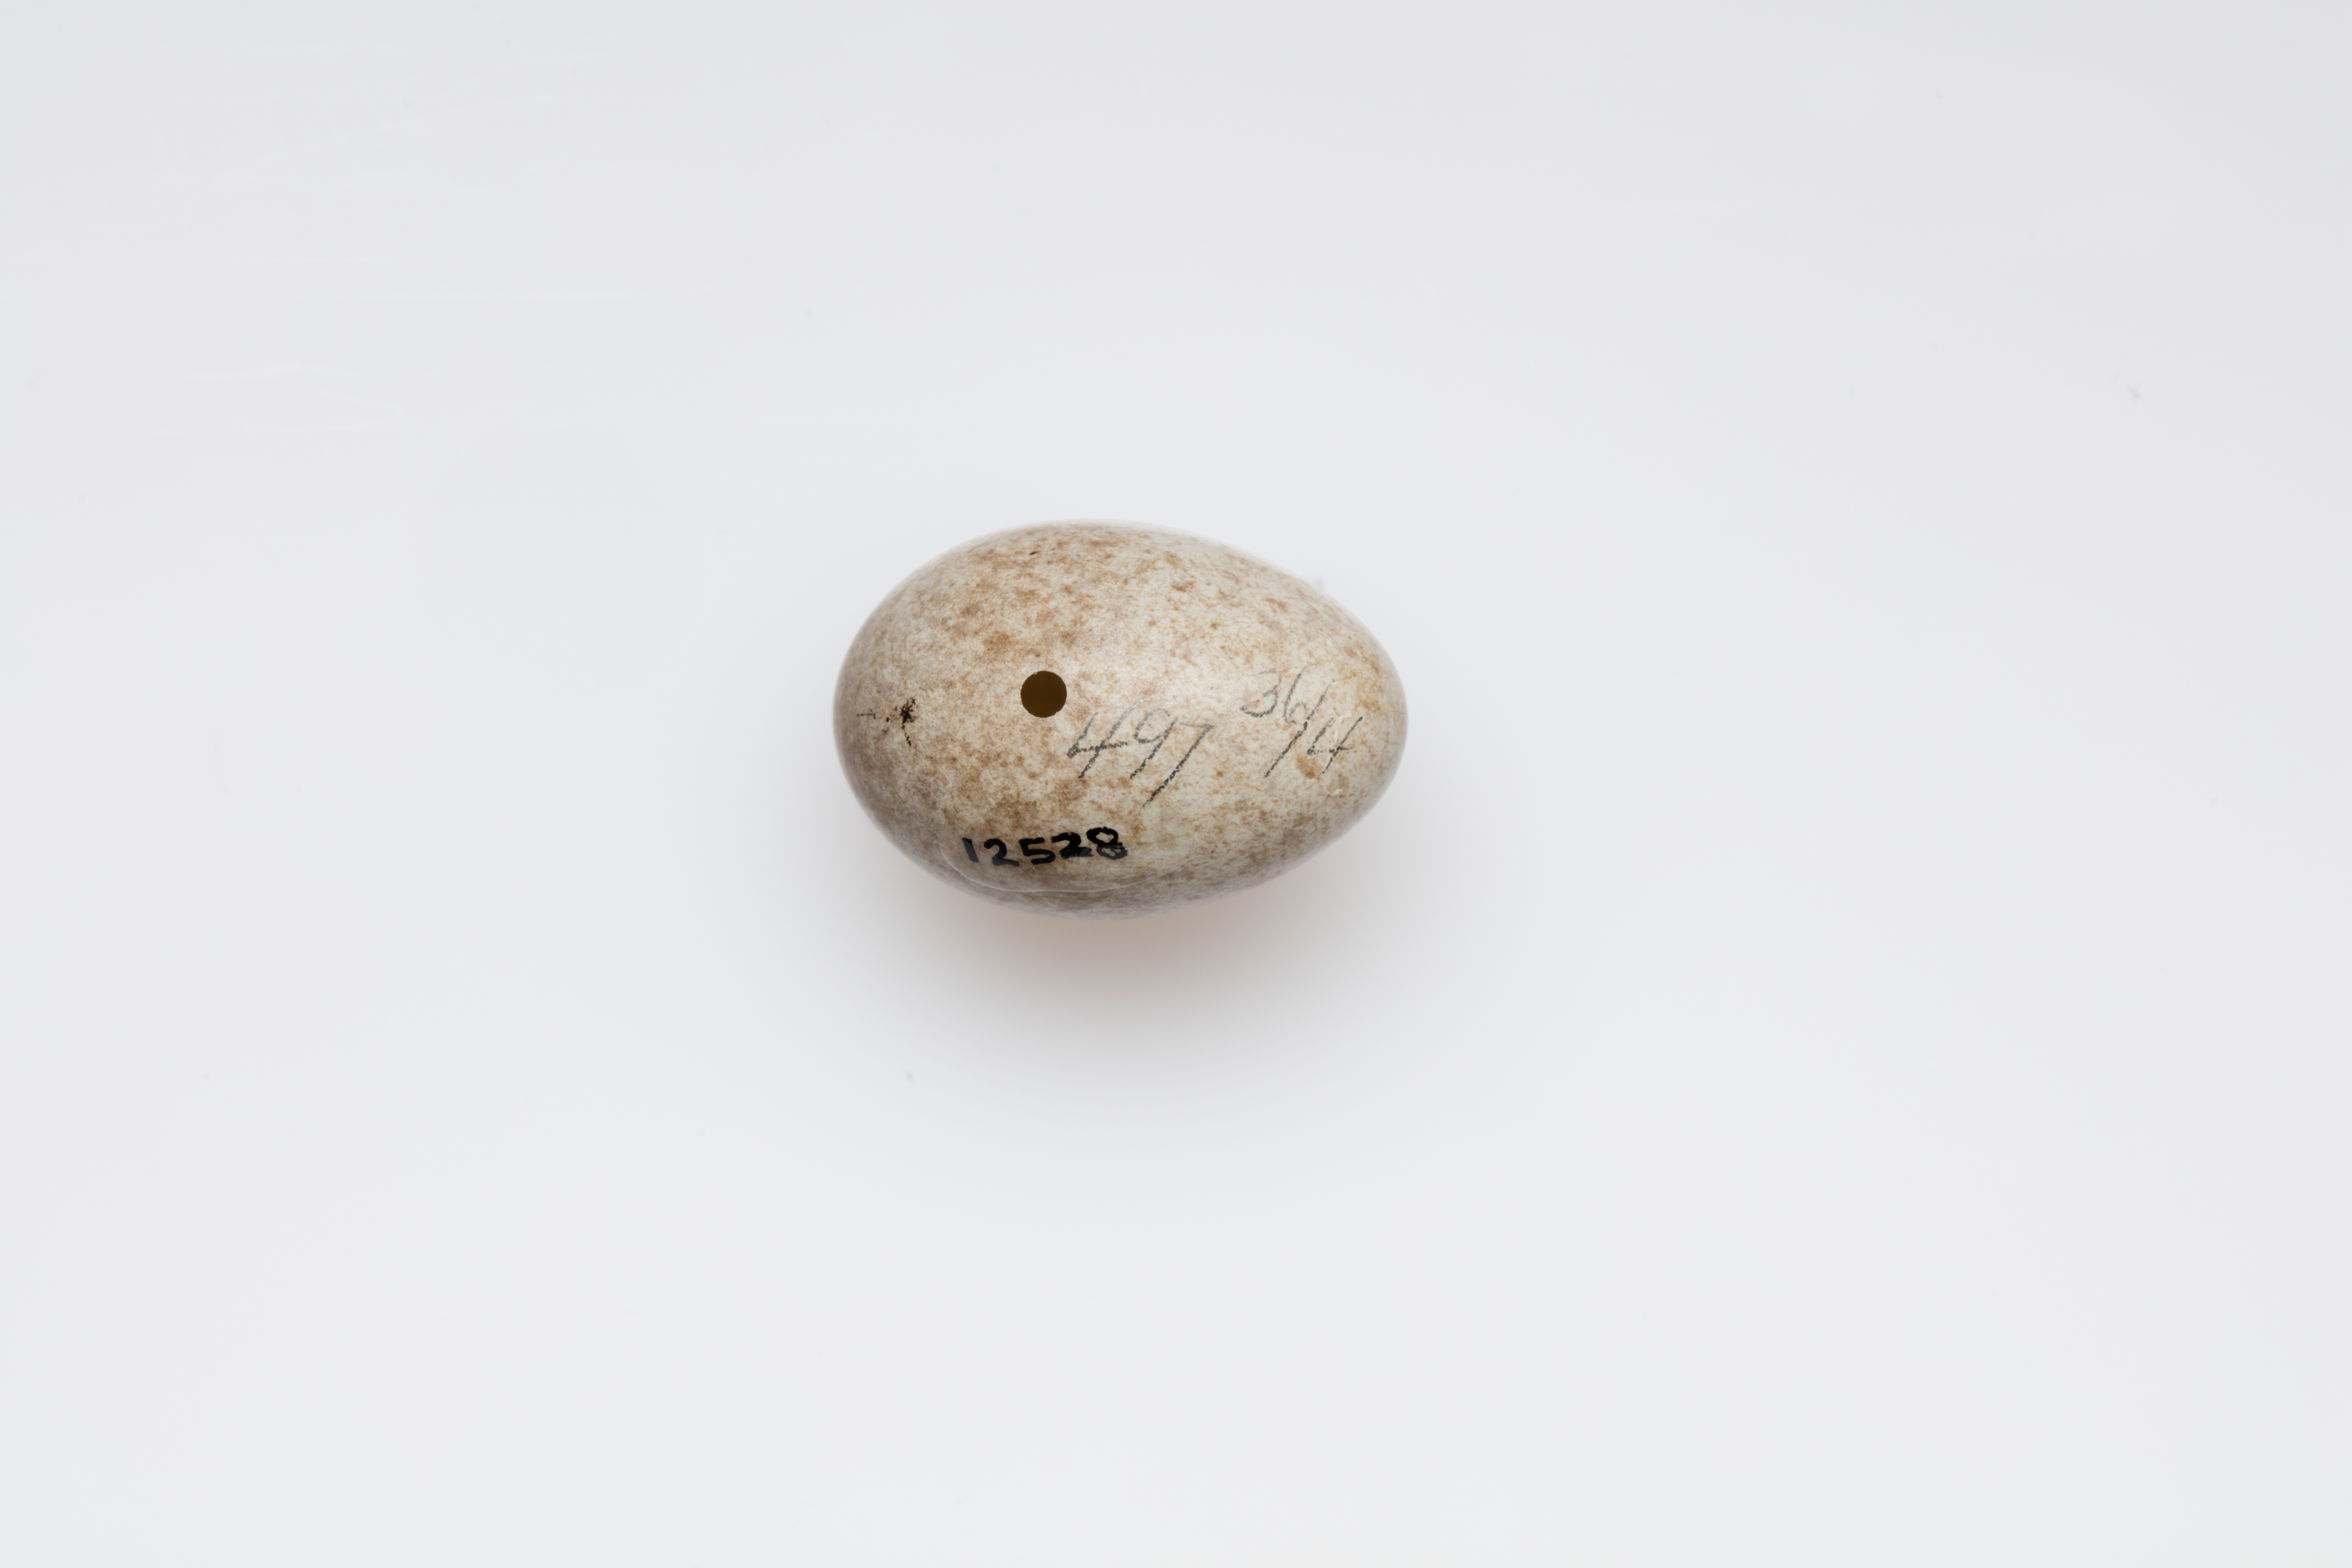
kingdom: Animalia
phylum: Chordata
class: Aves
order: Passeriformes
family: Icteridae
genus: Xanthocephalus
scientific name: Xanthocephalus xanthocephalus
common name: Yellow-headed blackbird
